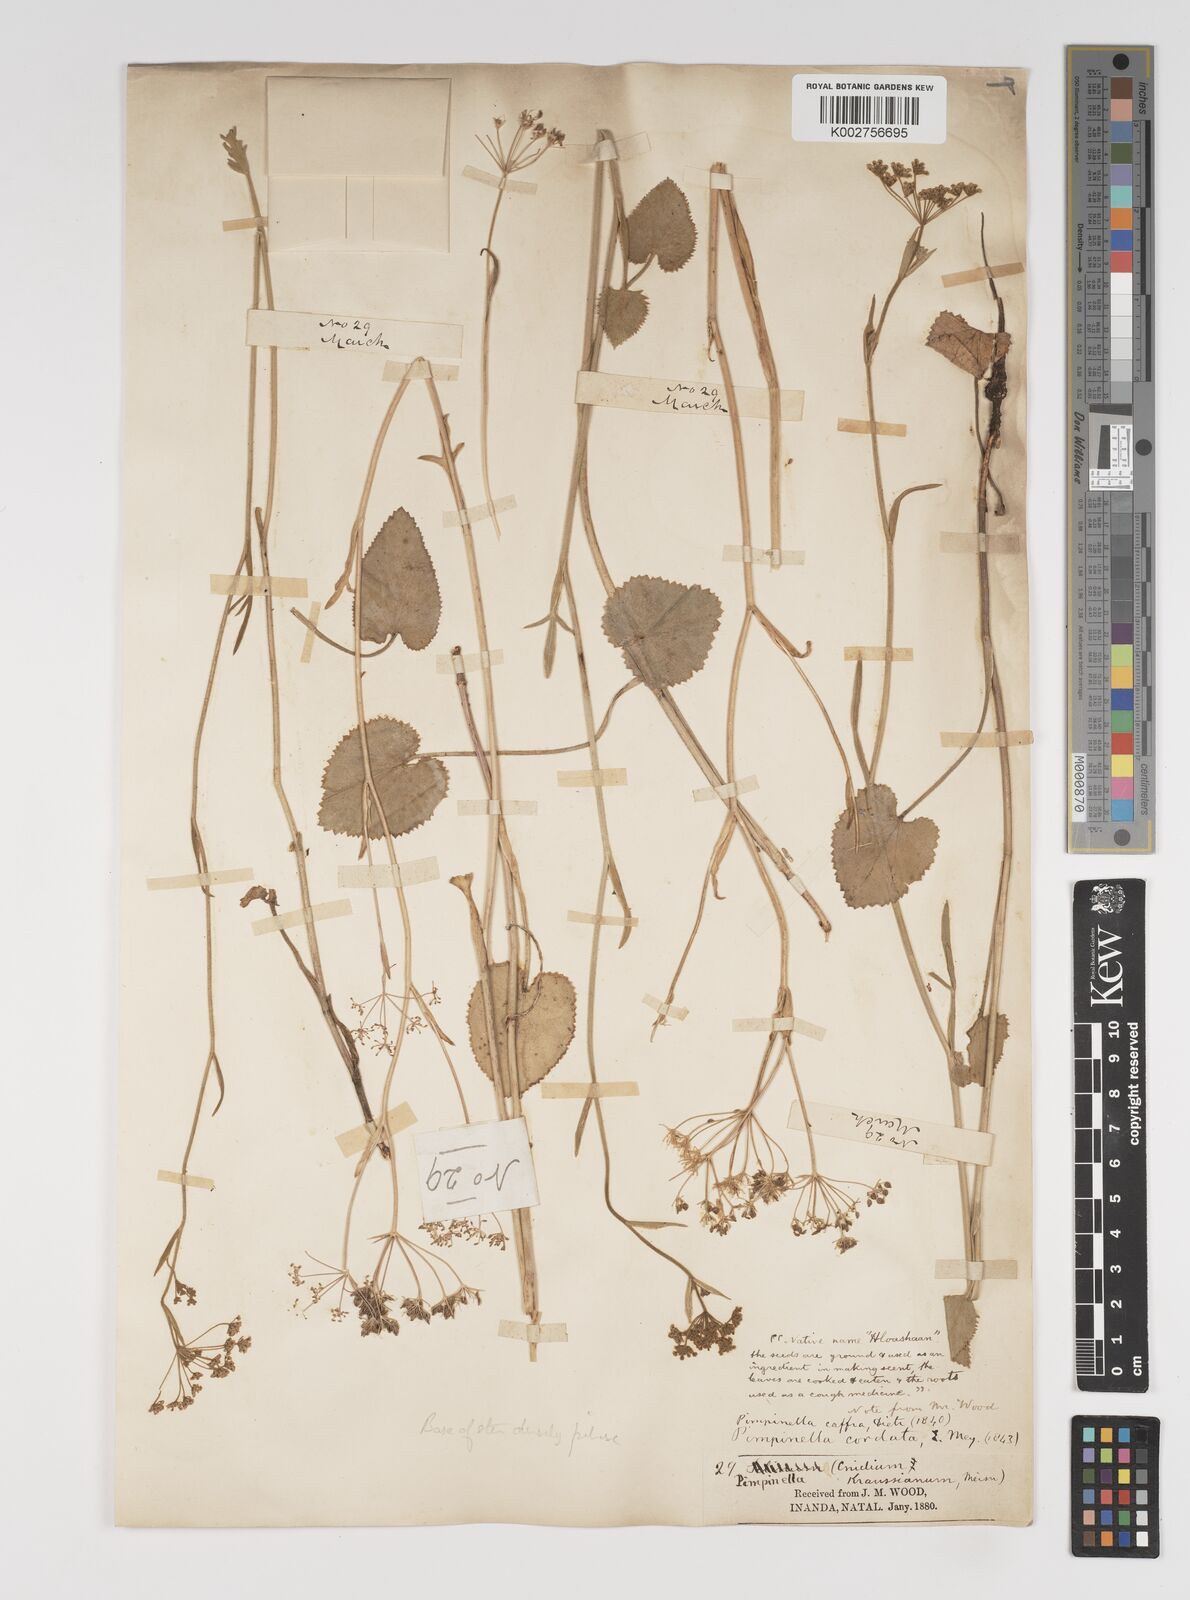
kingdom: Plantae
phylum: Tracheophyta
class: Magnoliopsida
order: Apiales
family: Apiaceae
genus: Pimpinella
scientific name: Pimpinella
